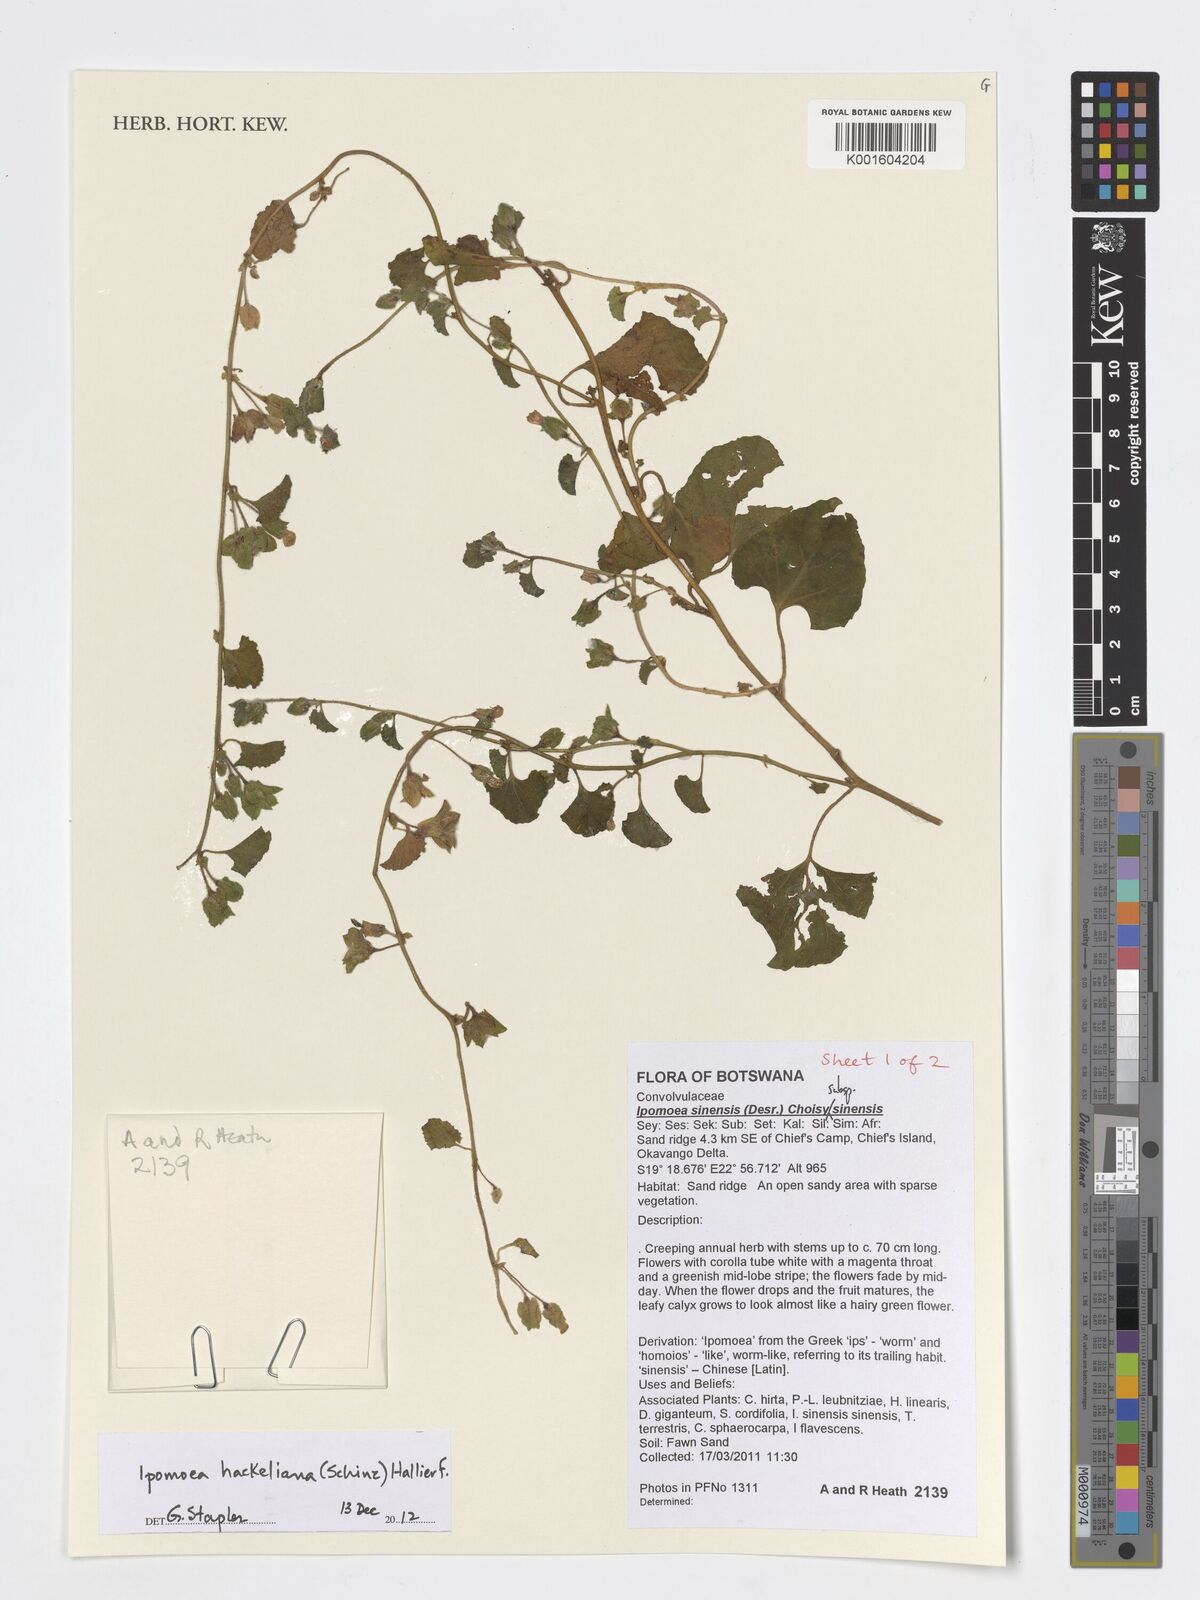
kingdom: Plantae
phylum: Tracheophyta
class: Magnoliopsida
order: Solanales
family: Convolvulaceae
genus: Ipomoea
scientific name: Ipomoea hackeliana
